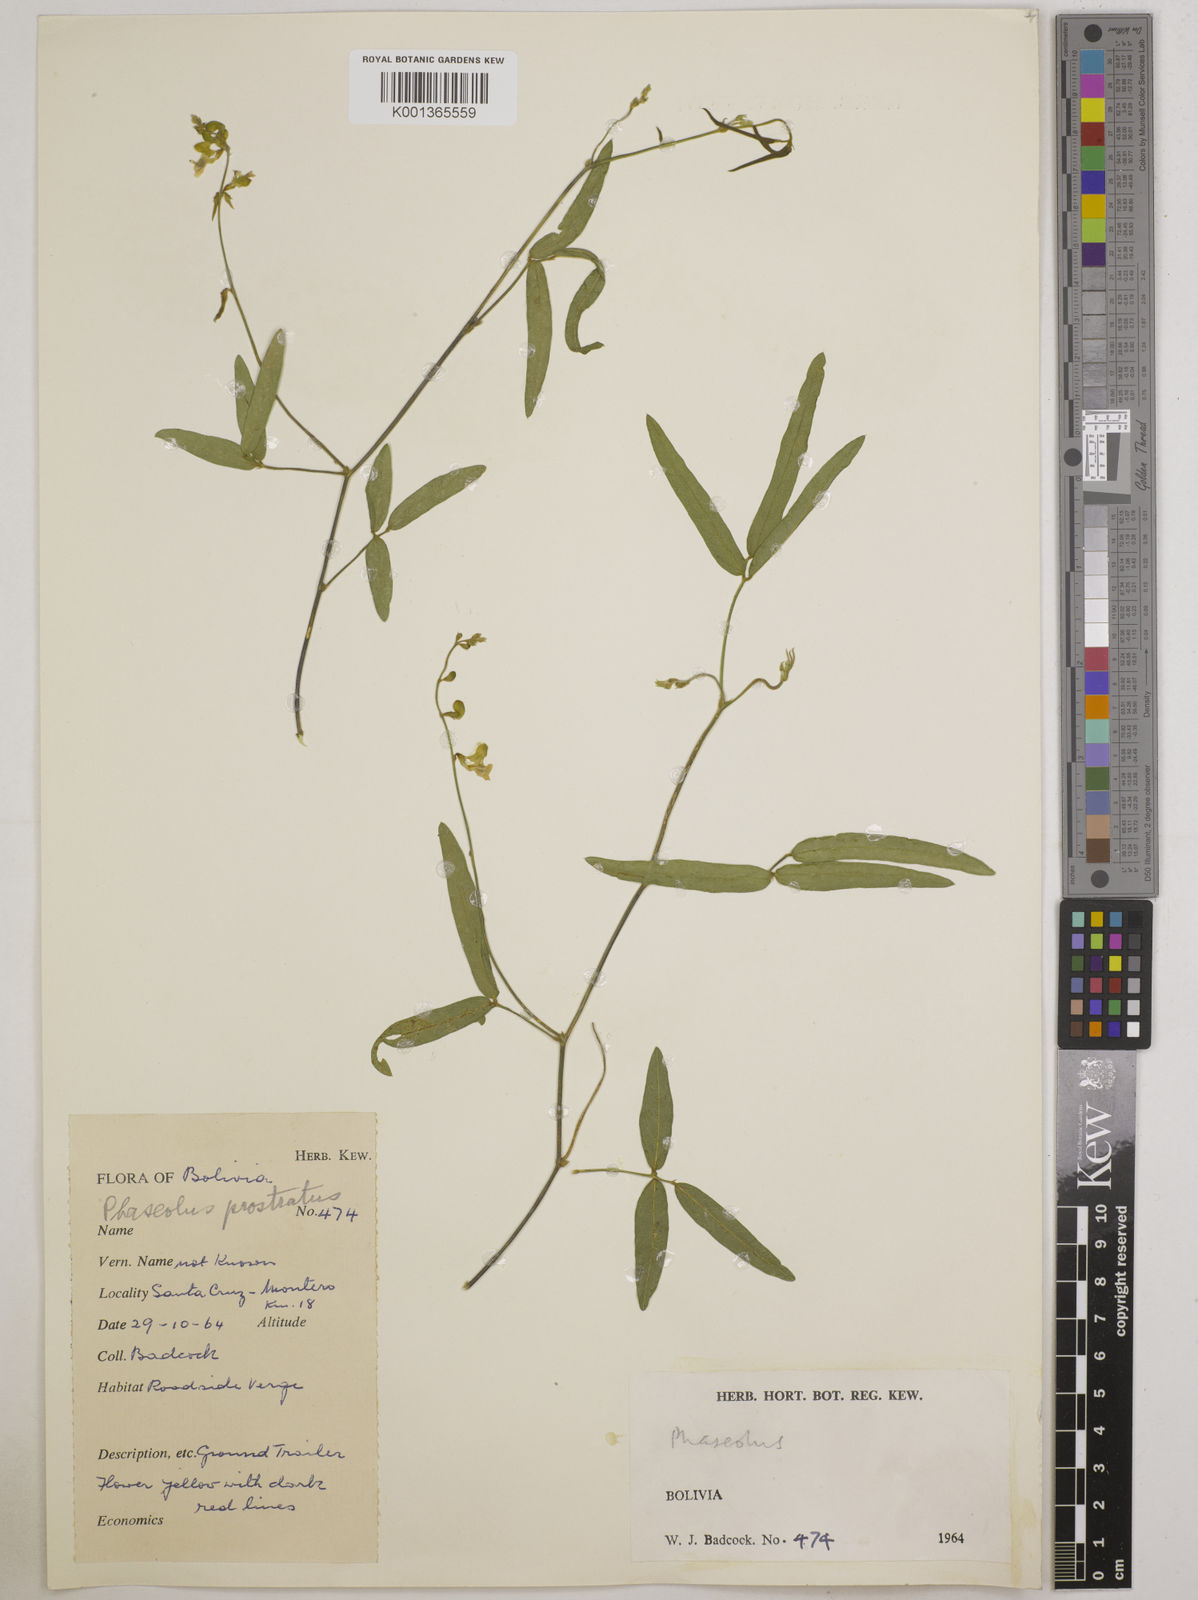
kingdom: Plantae
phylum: Tracheophyta
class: Magnoliopsida
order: Fabales
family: Fabaceae
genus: Macroptilium
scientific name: Macroptilium prostratum
